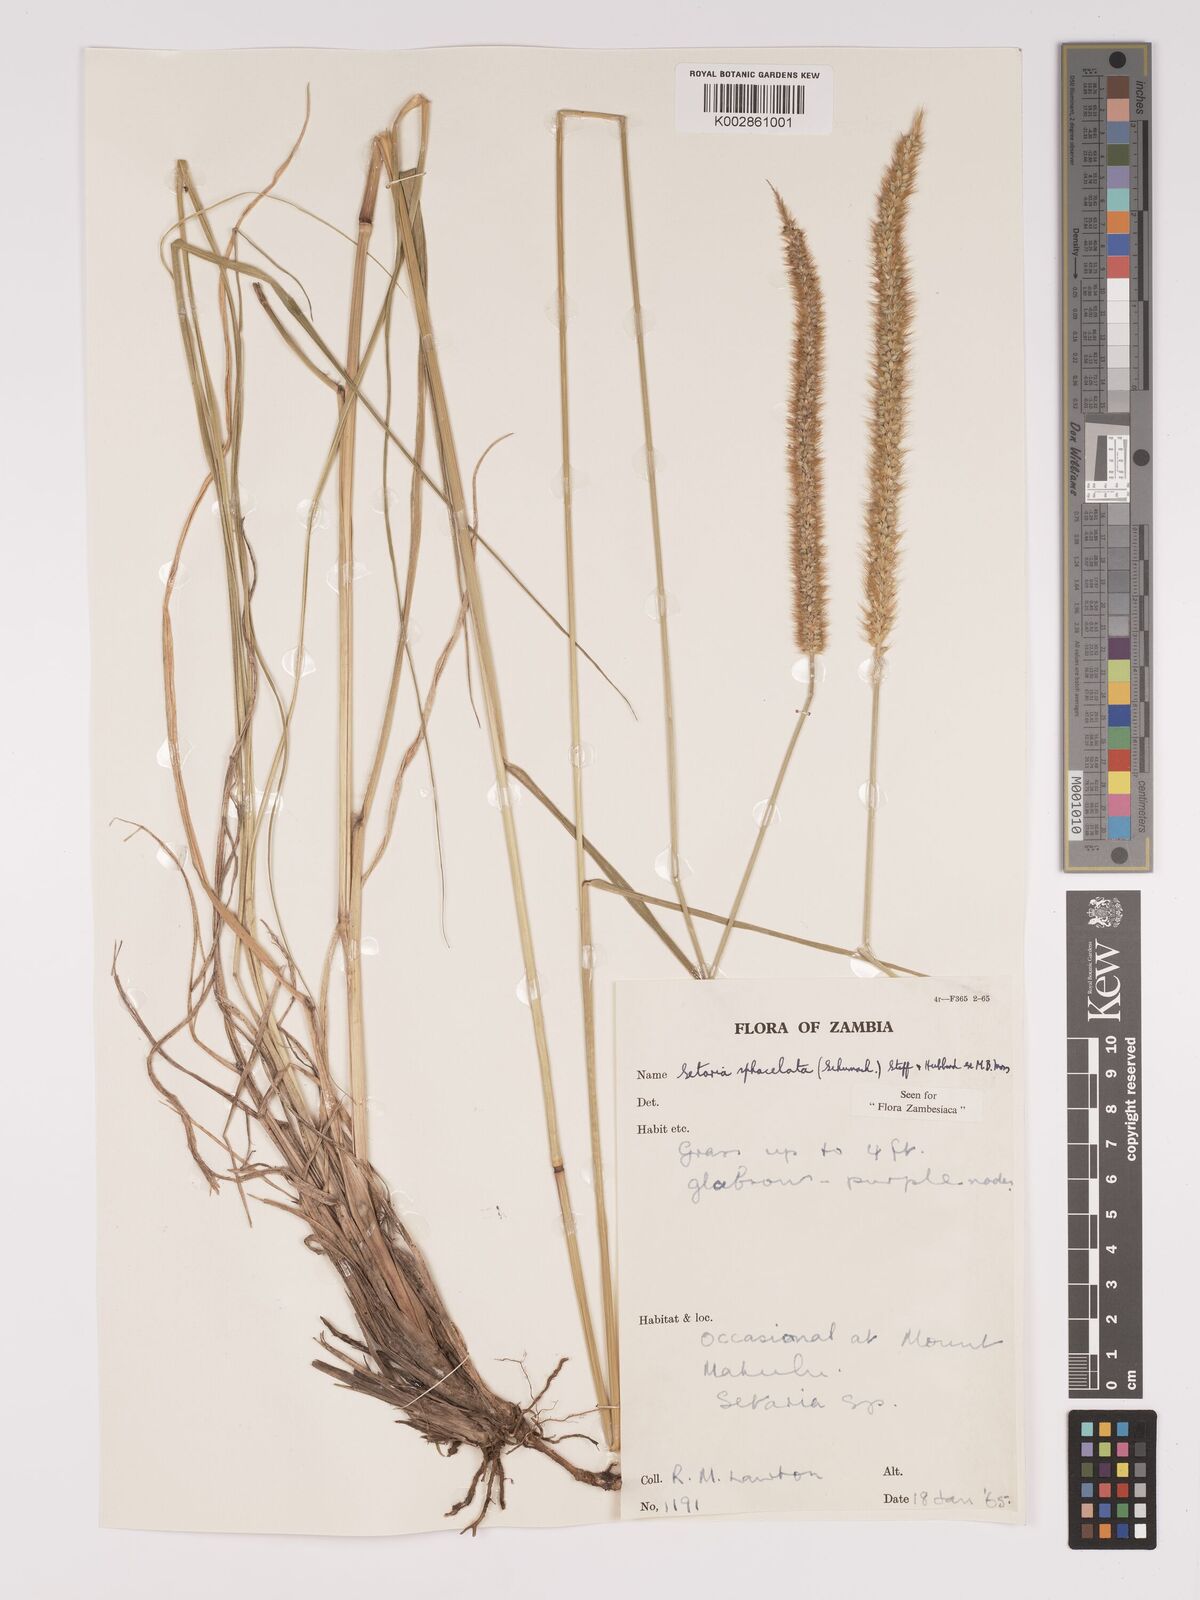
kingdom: Plantae
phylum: Tracheophyta
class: Liliopsida
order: Poales
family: Poaceae
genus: Setaria
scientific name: Setaria sphacelata
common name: African bristlegrass
